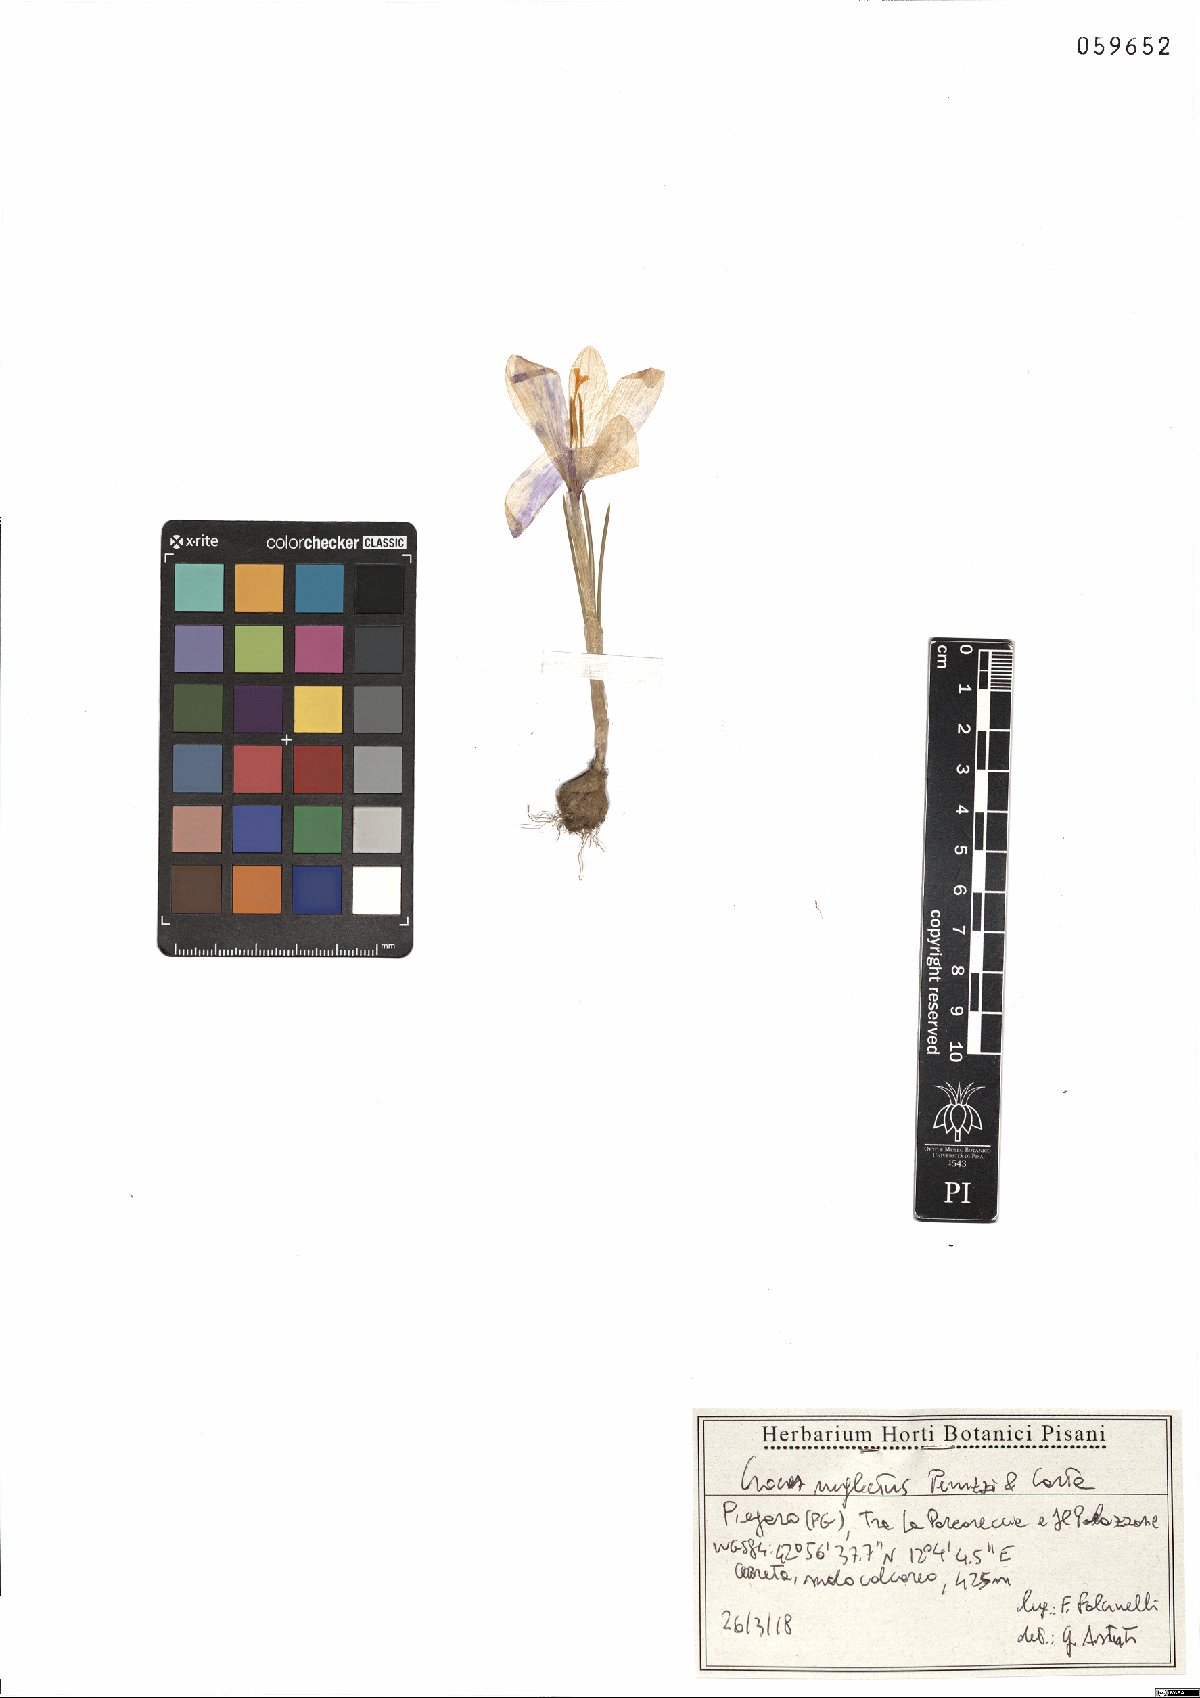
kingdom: Plantae
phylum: Tracheophyta
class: Liliopsida
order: Asparagales
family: Iridaceae
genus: Crocus
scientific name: Crocus neglectus
